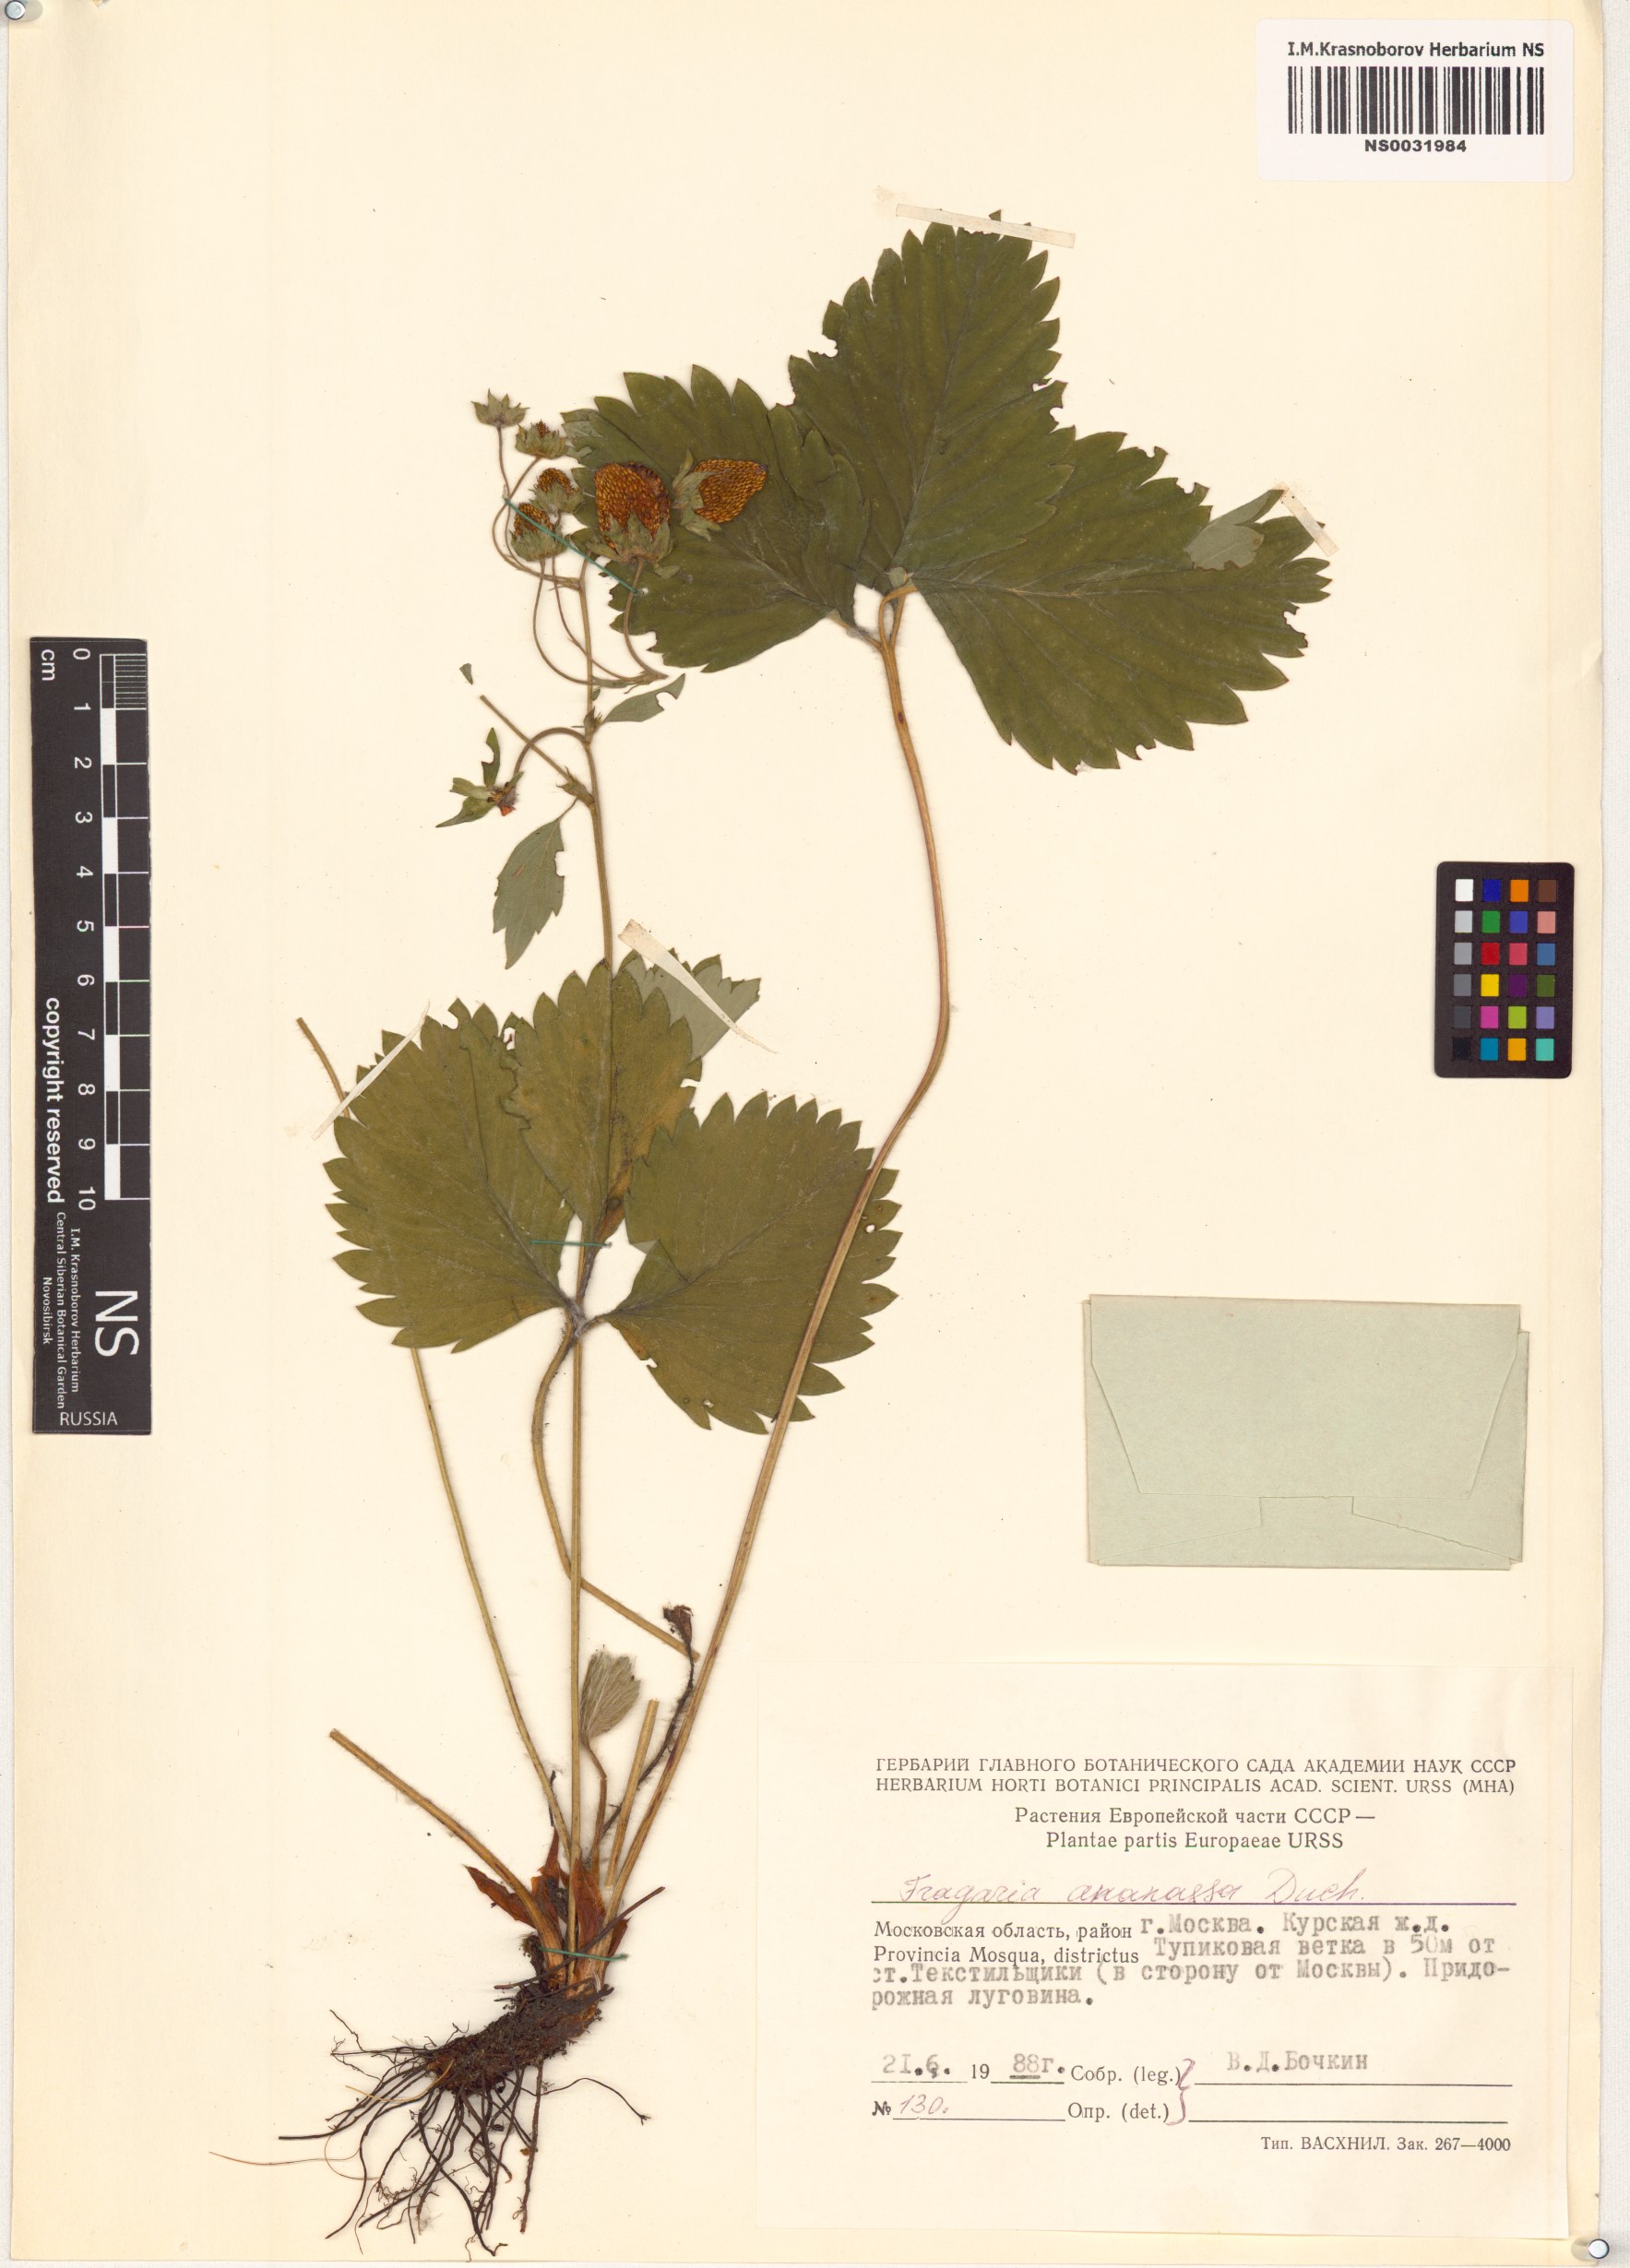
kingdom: Plantae
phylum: Tracheophyta
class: Magnoliopsida
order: Rosales
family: Rosaceae
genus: Fragaria
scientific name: Fragaria ananassa
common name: Garden strawberry
